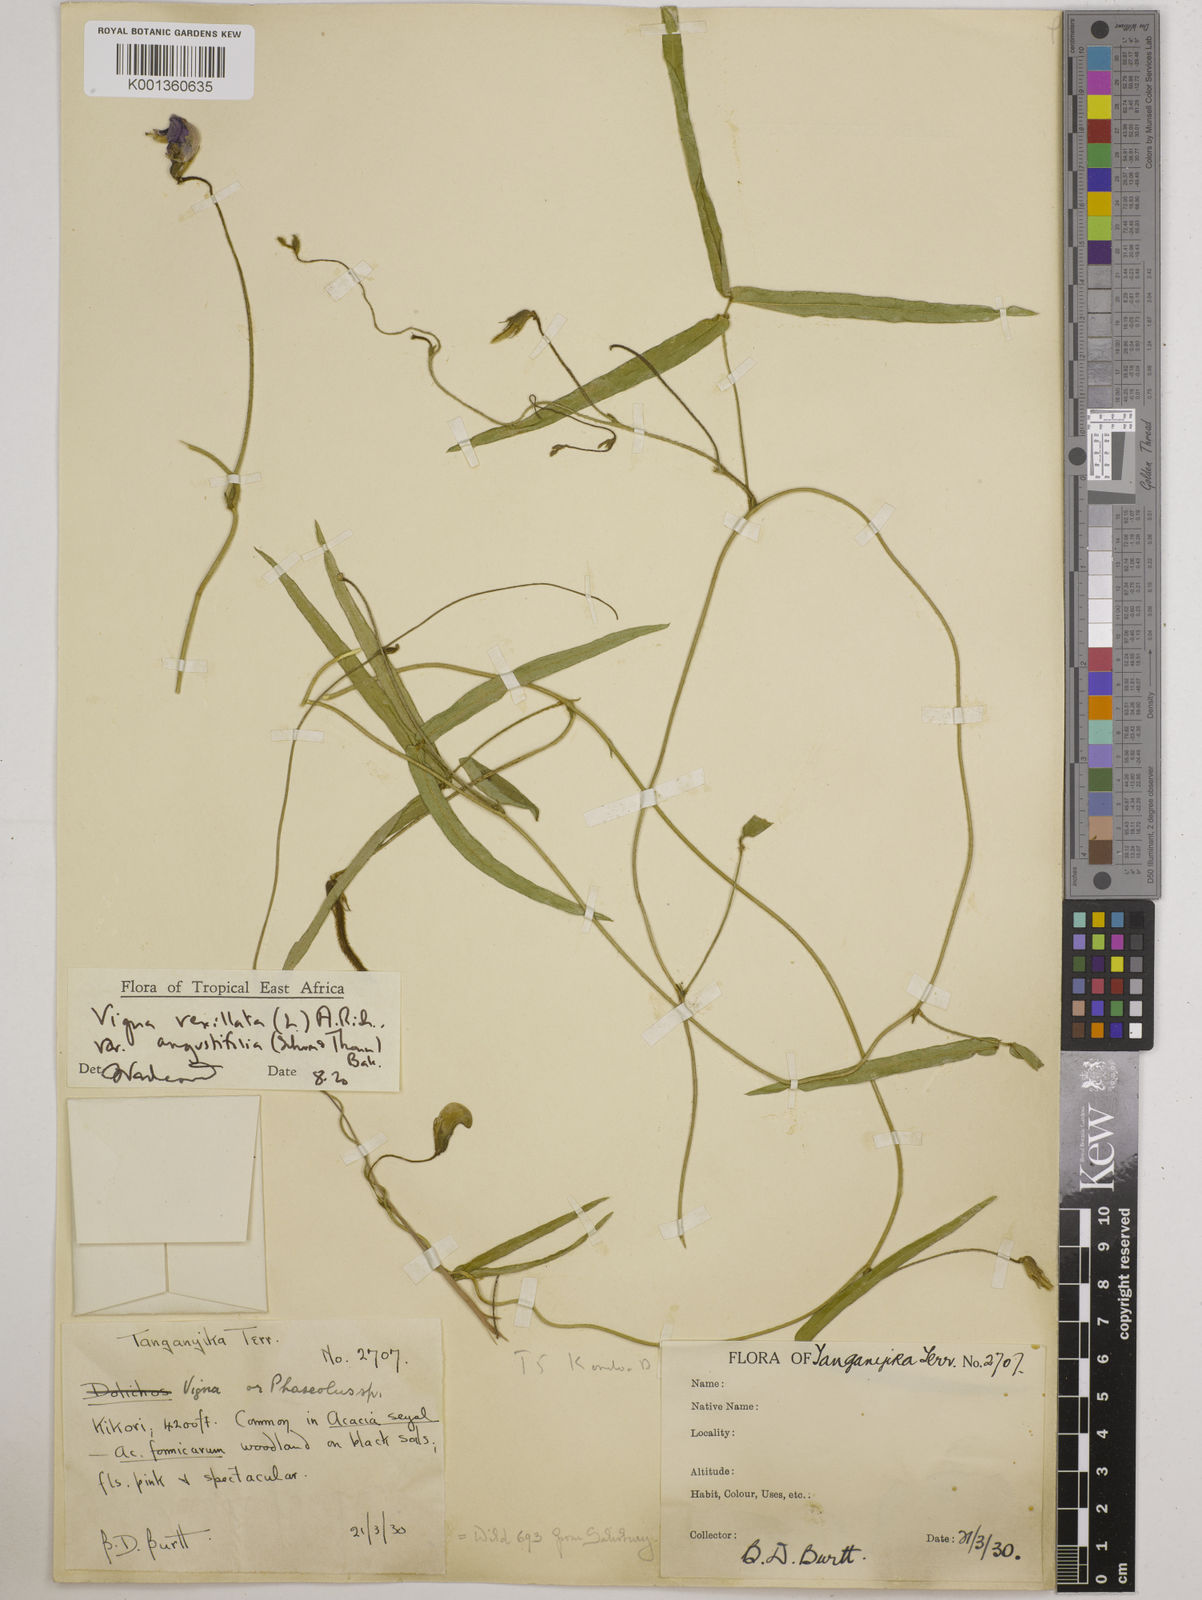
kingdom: Plantae
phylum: Tracheophyta
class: Magnoliopsida
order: Fabales
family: Fabaceae
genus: Vigna
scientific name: Vigna vexillata
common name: Zombi pea
